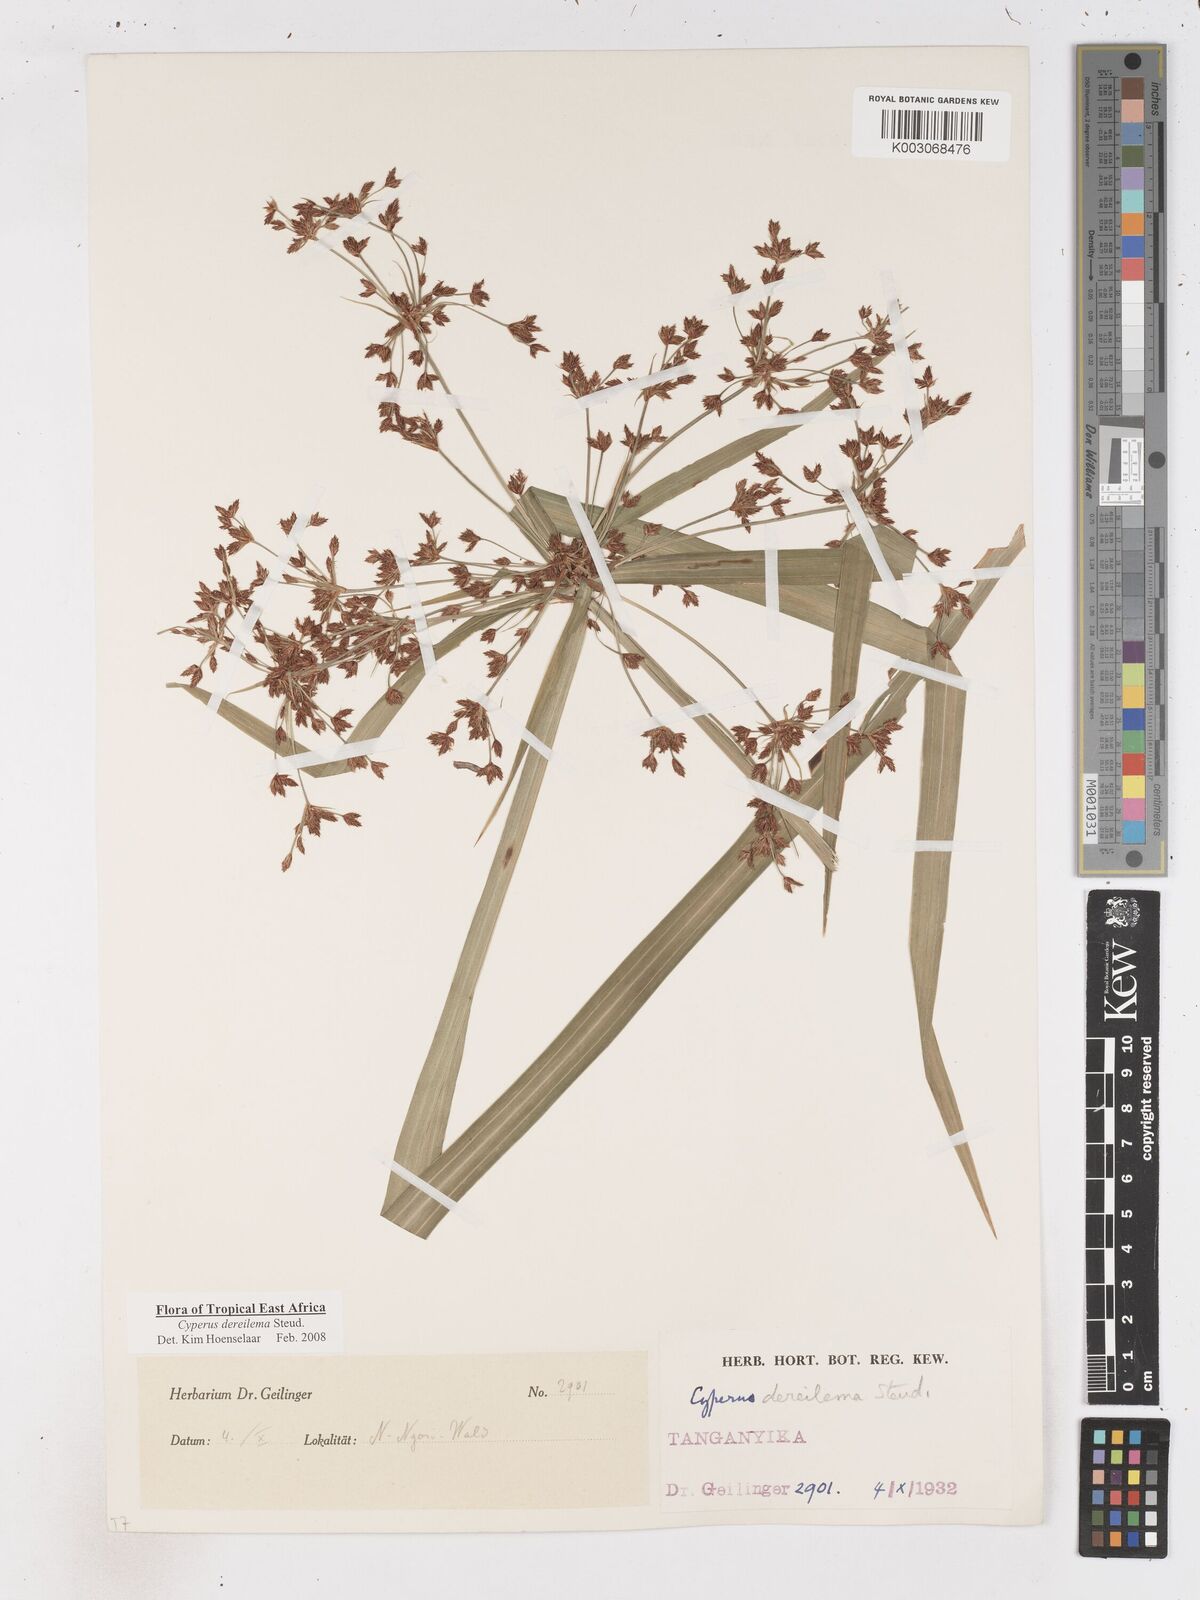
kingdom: Plantae
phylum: Tracheophyta
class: Liliopsida
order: Poales
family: Cyperaceae
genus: Cyperus
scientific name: Cyperus derreilema
